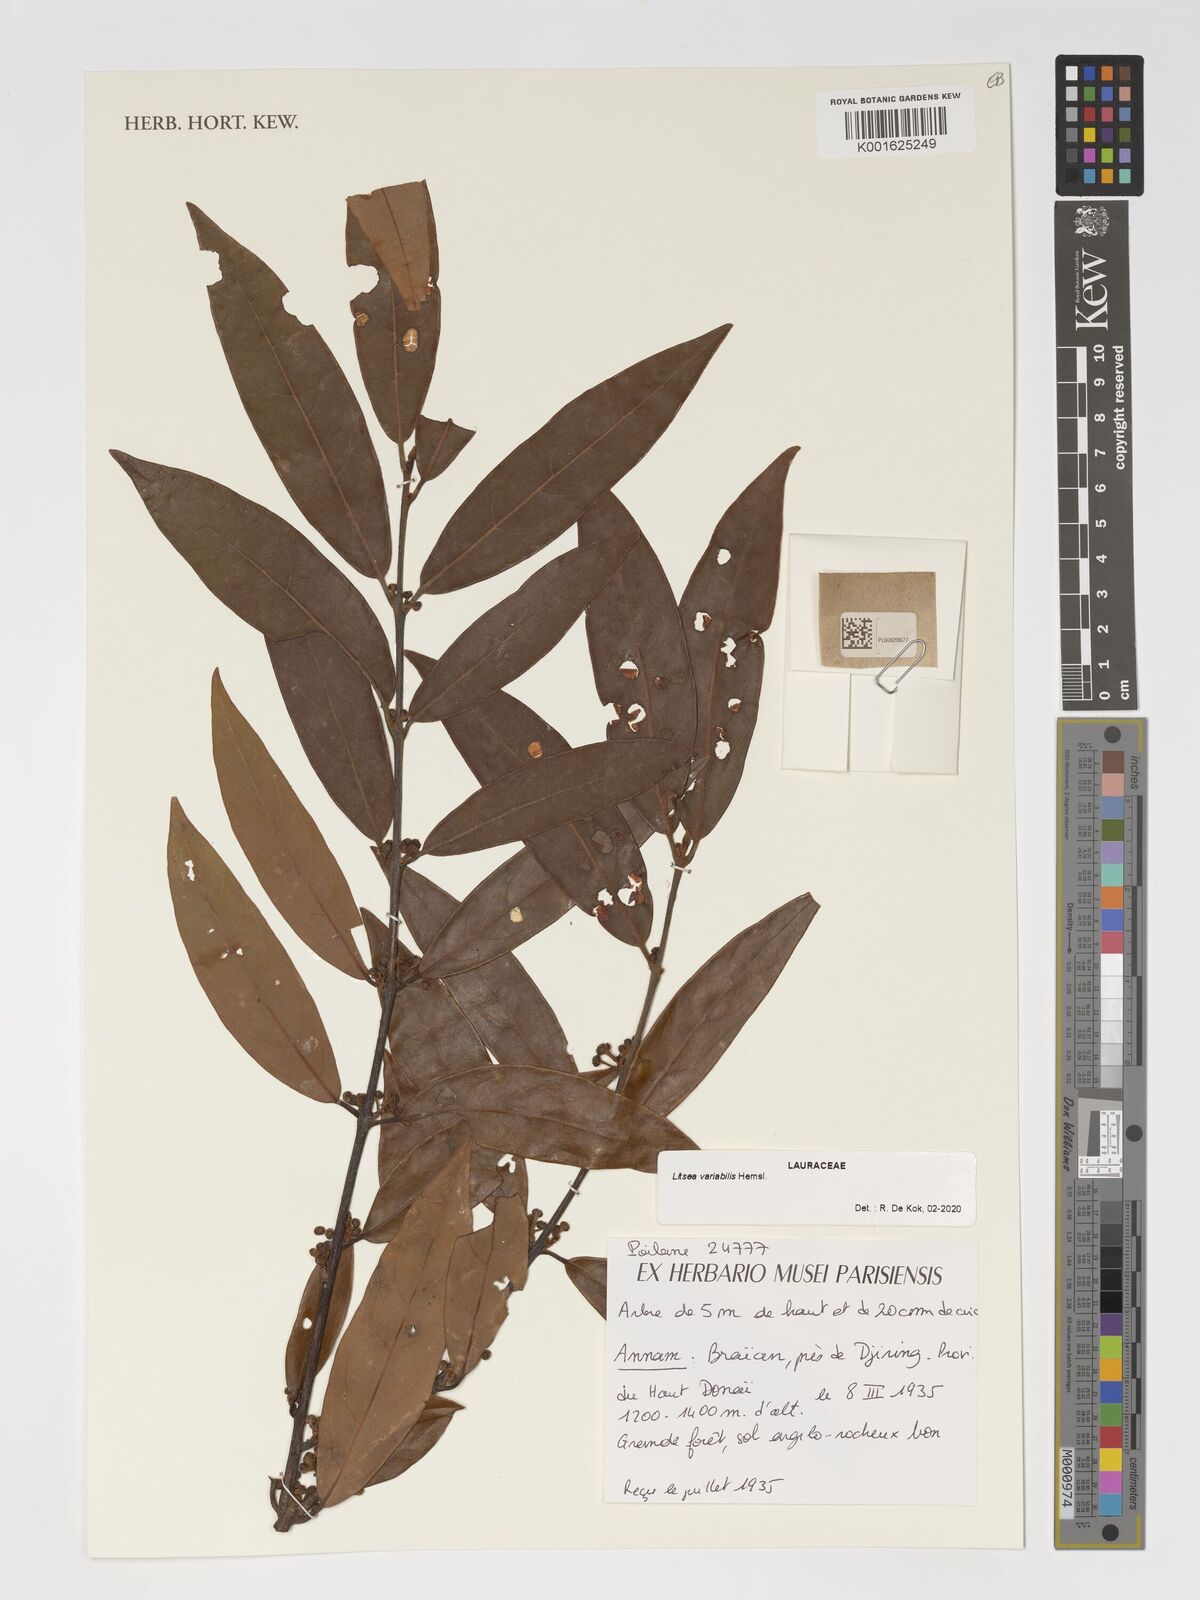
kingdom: Plantae
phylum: Tracheophyta
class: Magnoliopsida
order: Laurales
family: Lauraceae
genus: Litsea
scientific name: Litsea variabilis
